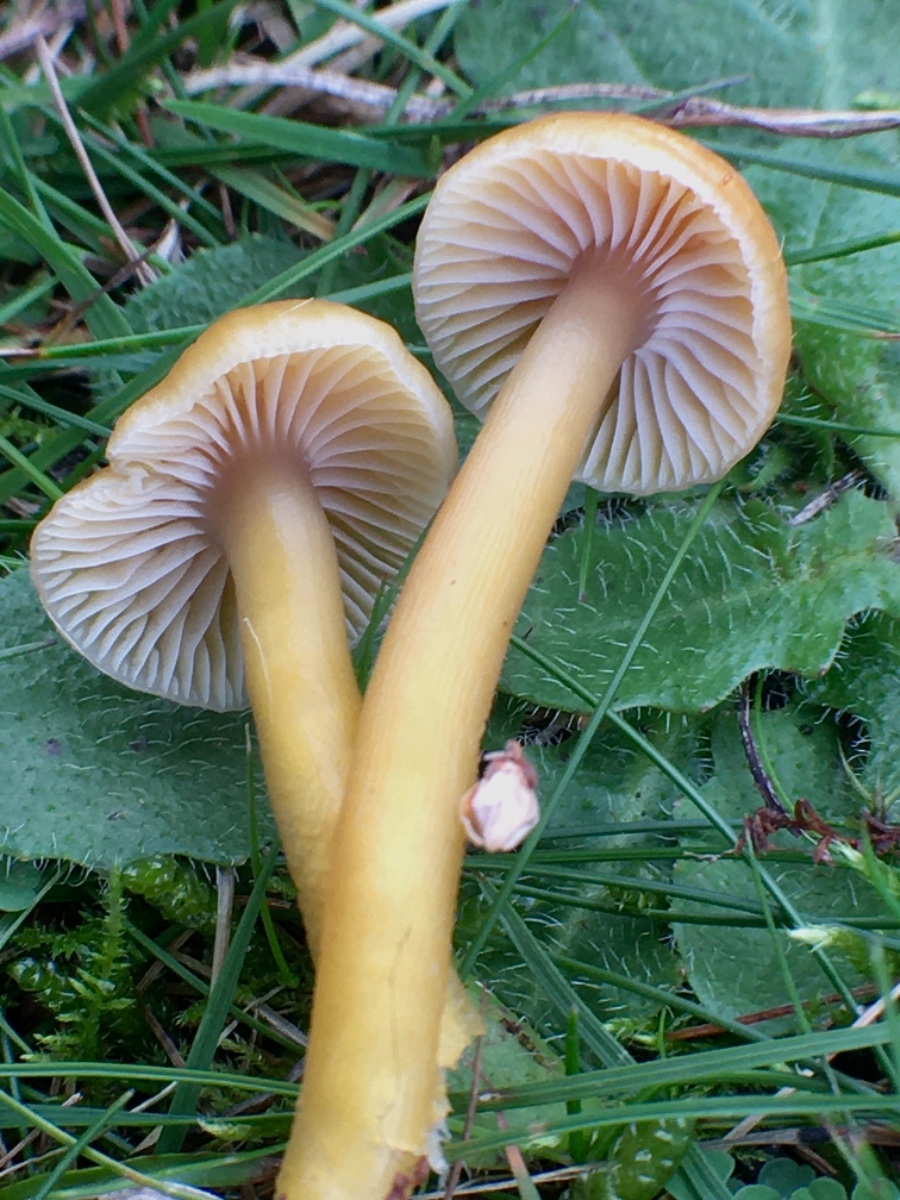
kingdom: Fungi
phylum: Basidiomycota
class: Agaricomycetes
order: Agaricales
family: Hygrophoraceae
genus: Gliophorus
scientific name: Gliophorus laetus
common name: brusk-vokshat
